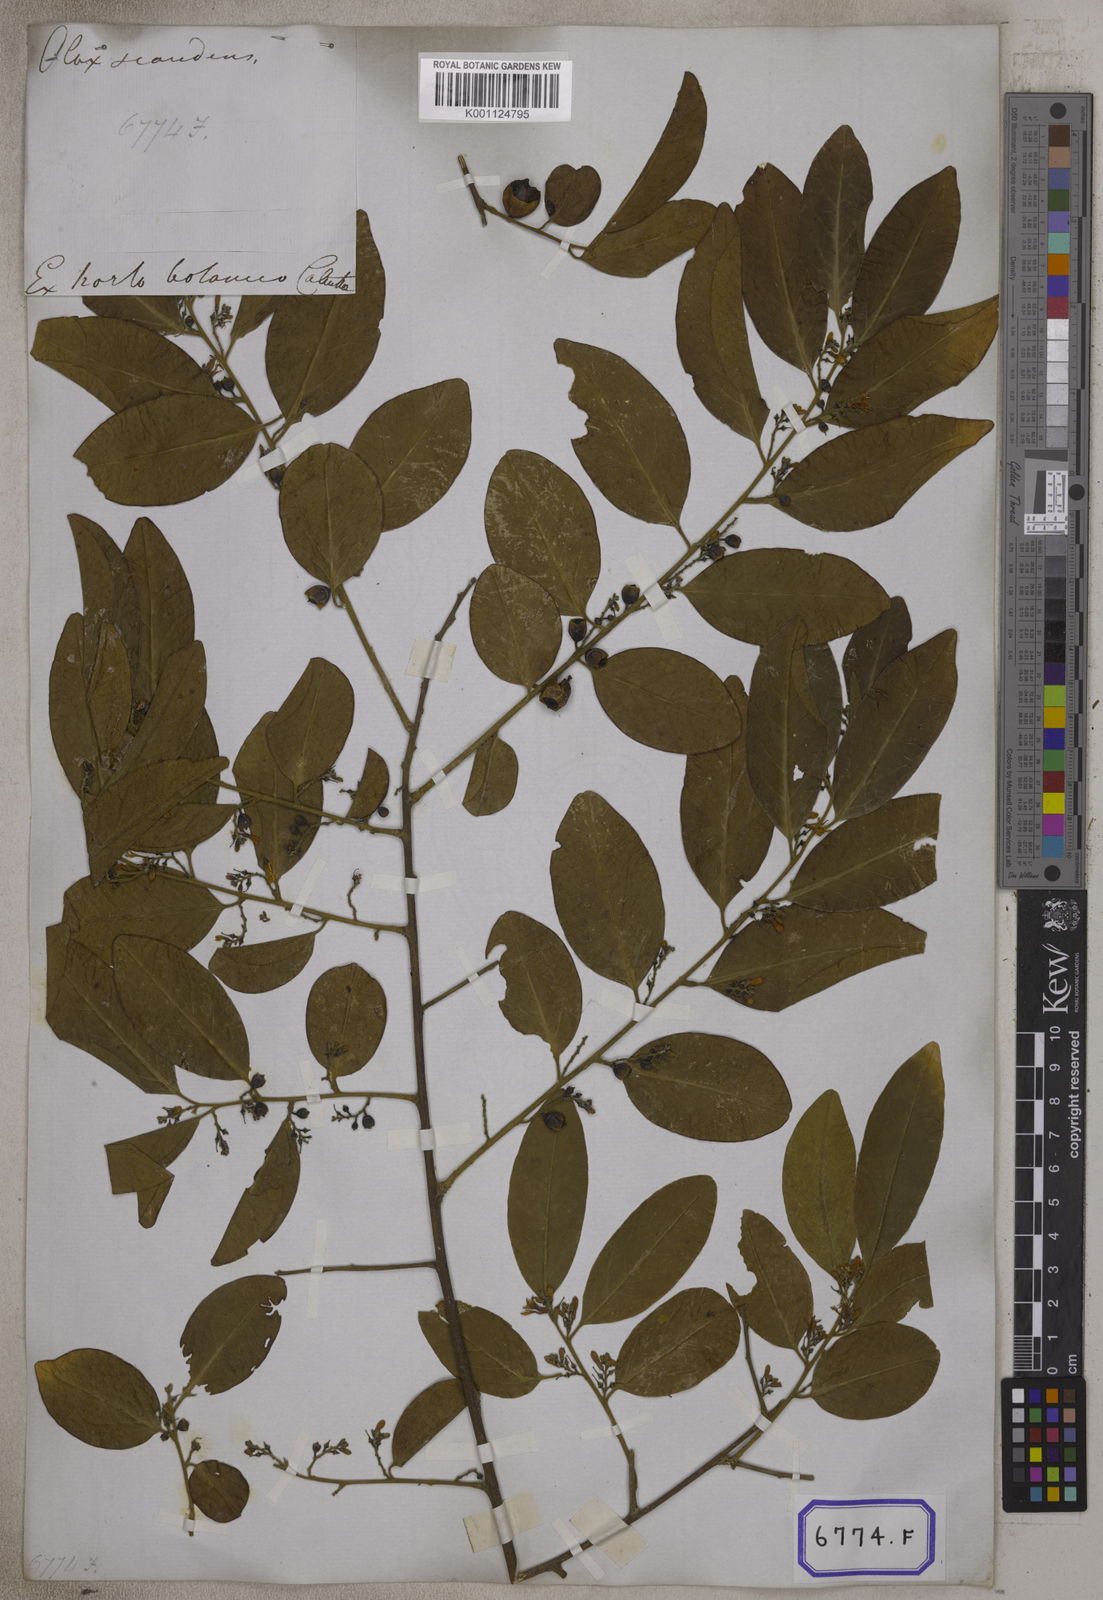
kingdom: Plantae
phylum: Tracheophyta
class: Magnoliopsida
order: Santalales
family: Olacaceae
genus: Olax
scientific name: Olax psittacorum
